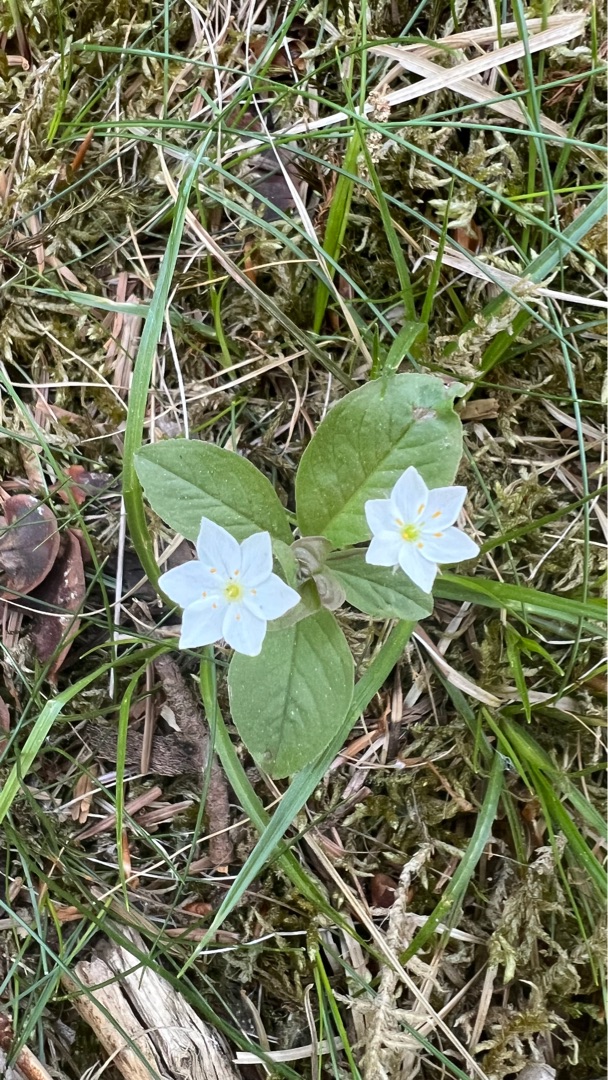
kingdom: Plantae
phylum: Tracheophyta
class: Magnoliopsida
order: Ericales
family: Primulaceae
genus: Lysimachia
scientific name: Lysimachia europaea
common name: Skovstjerne
